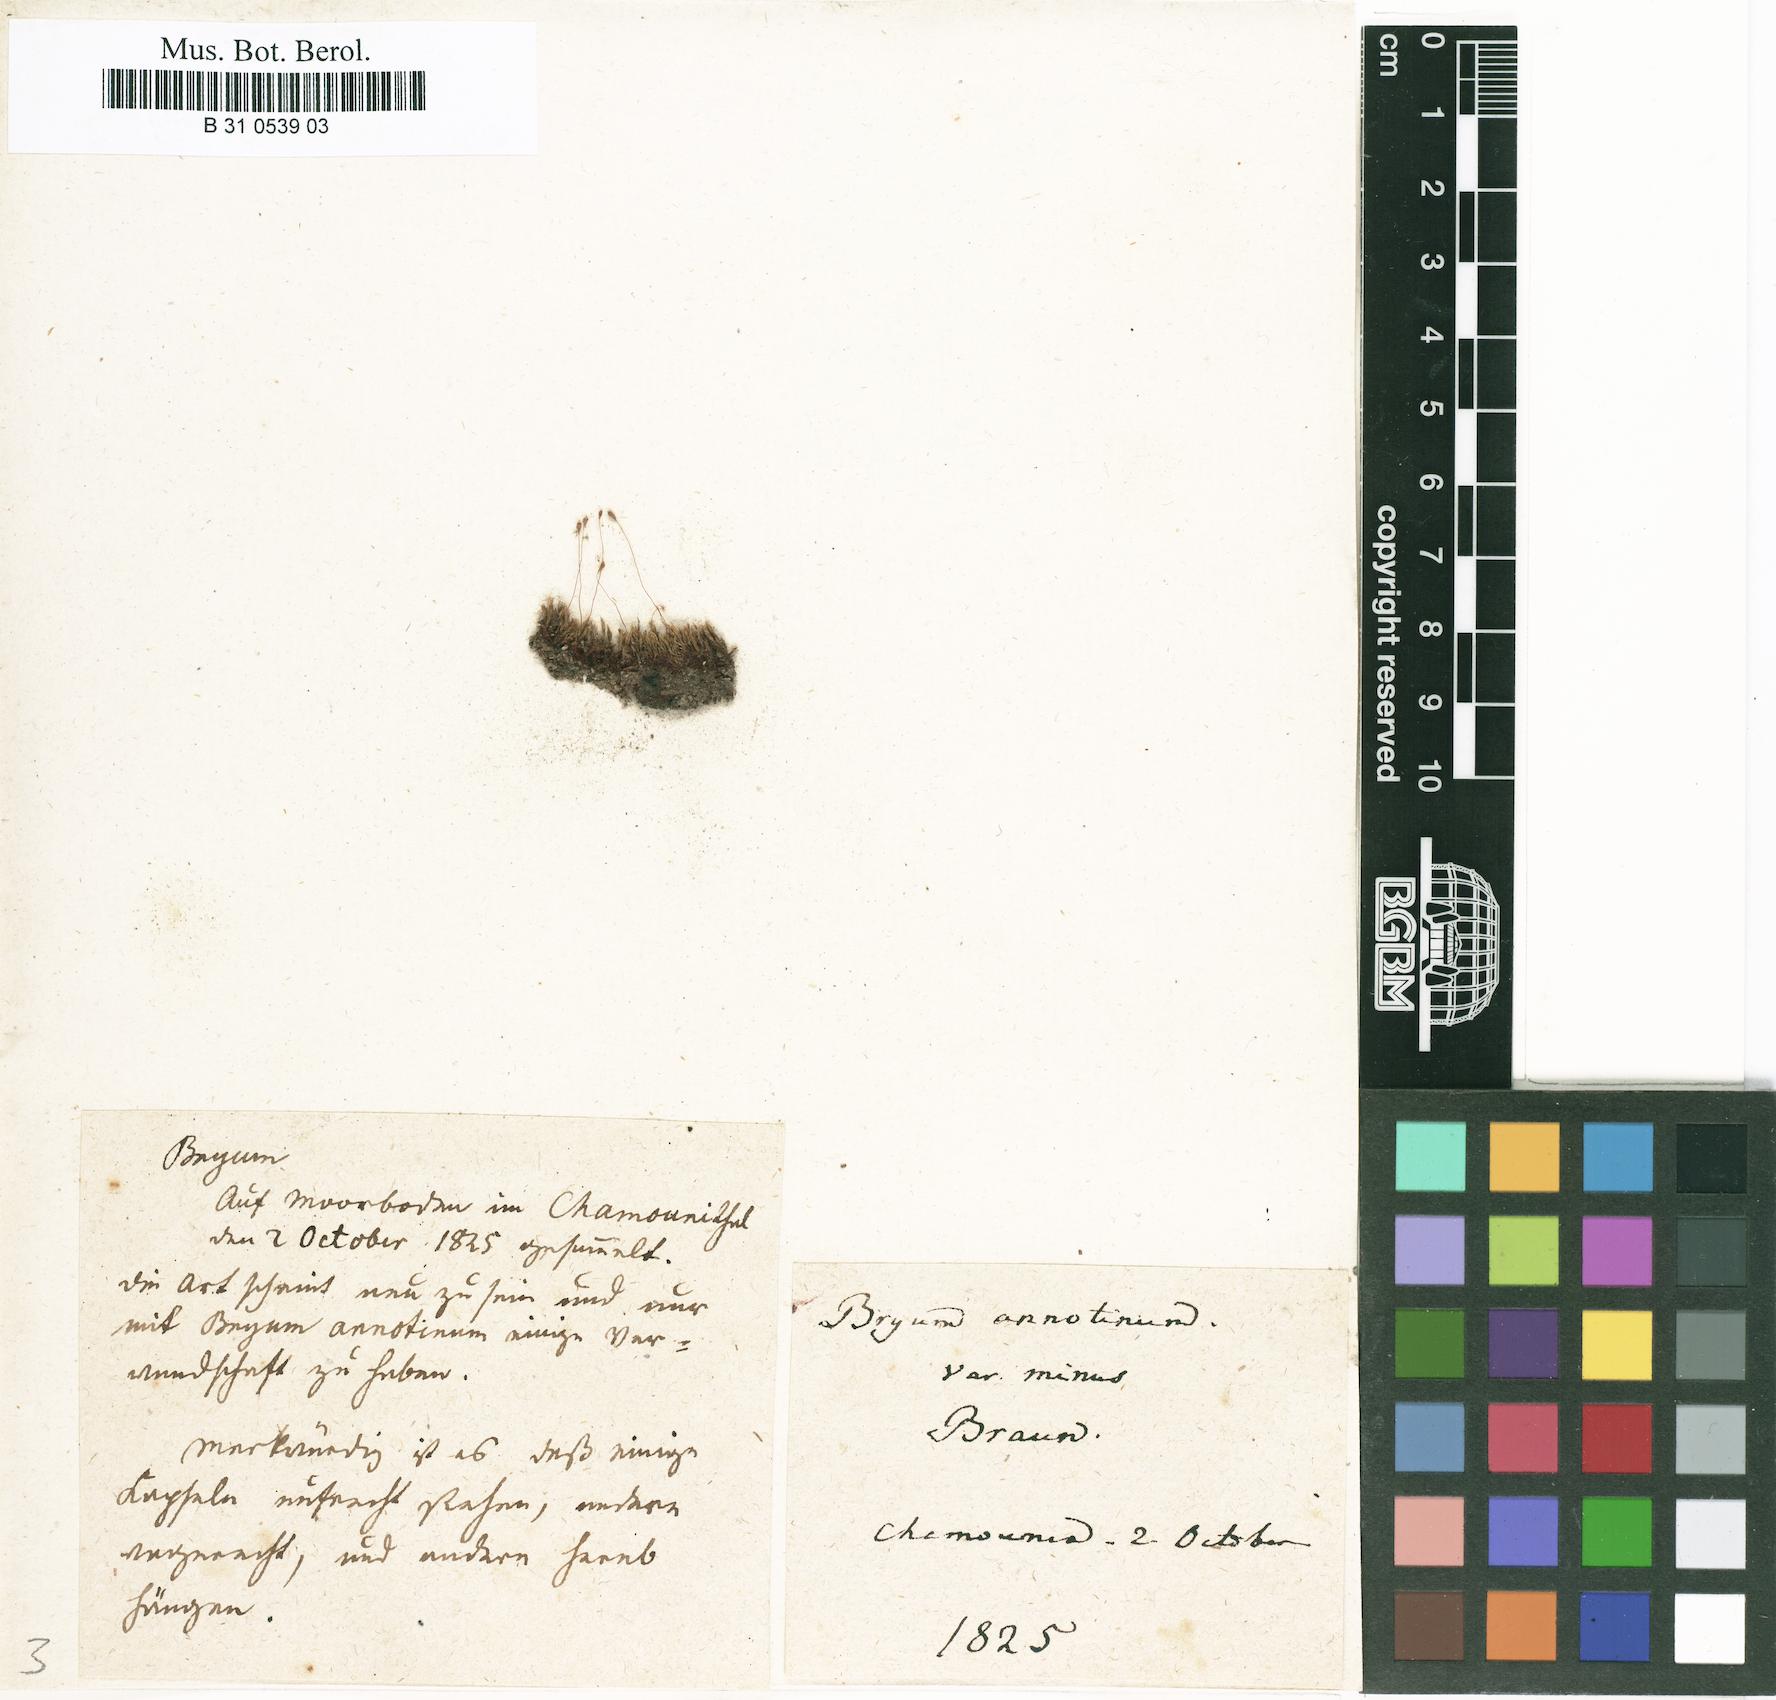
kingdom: Plantae
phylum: Bryophyta
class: Bryopsida
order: Bryales
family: Mniaceae
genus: Pohlia
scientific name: Pohlia annotina
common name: Pale-fruited nodding moss
